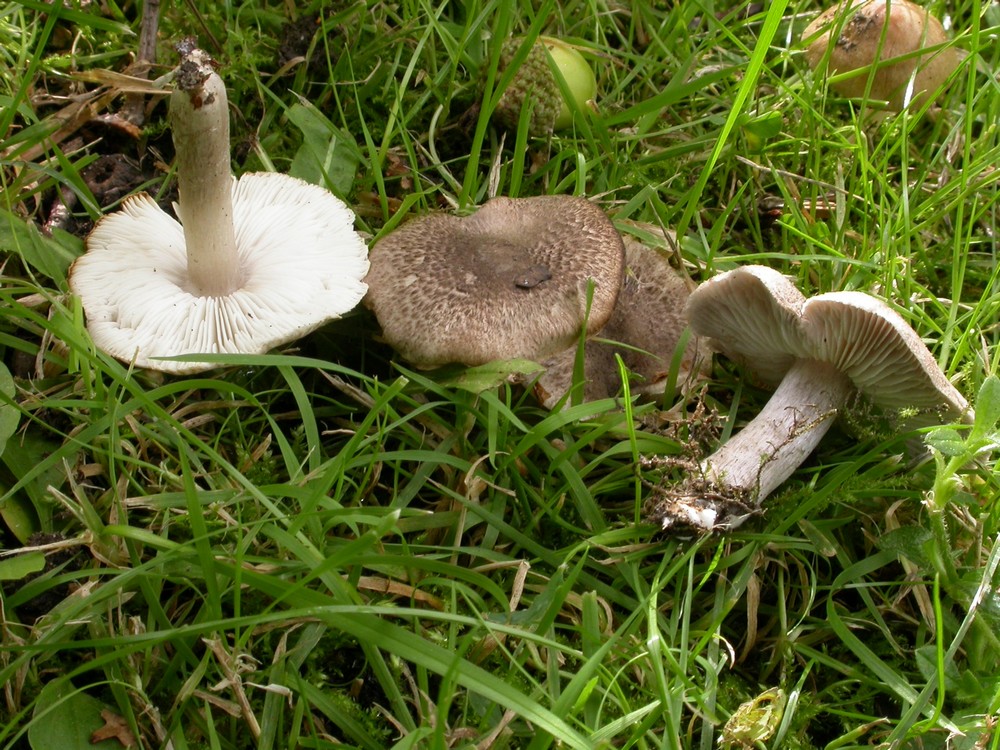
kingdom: Fungi
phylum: Basidiomycota
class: Agaricomycetes
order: Agaricales
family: Tricholomataceae
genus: Tricholoma
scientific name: Tricholoma scalpturatum
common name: gulplettet ridderhat
